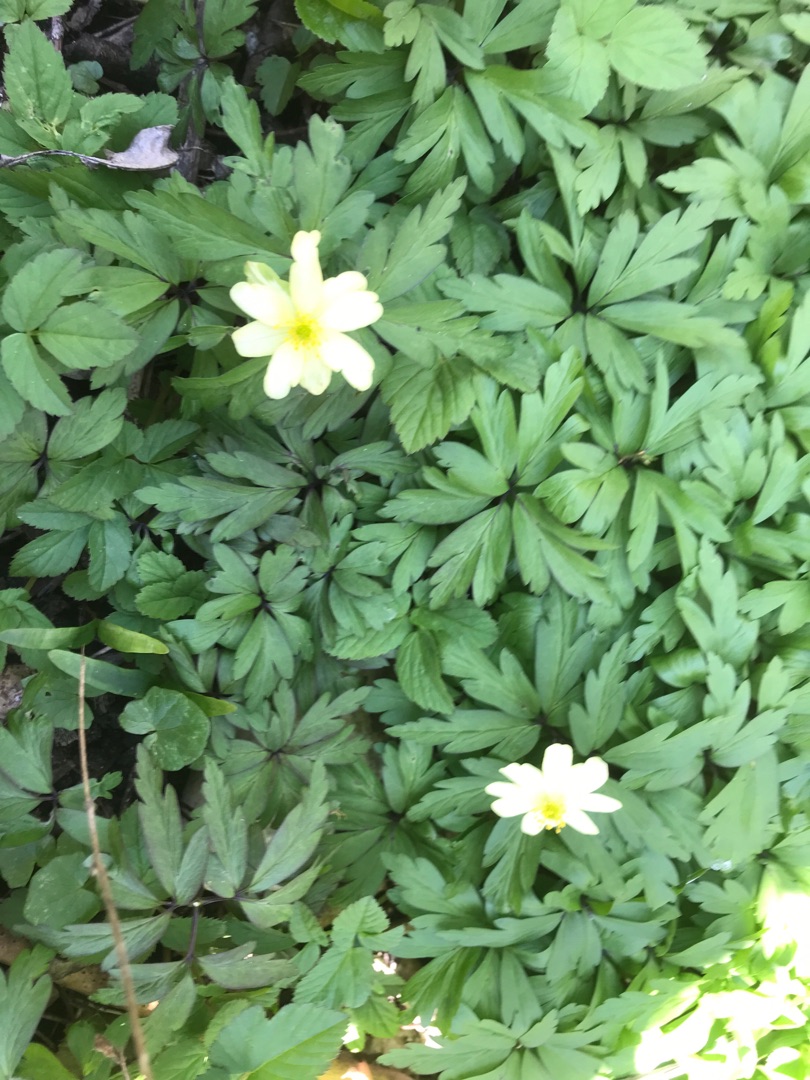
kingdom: Plantae
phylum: Tracheophyta
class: Magnoliopsida
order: Ranunculales
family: Ranunculaceae
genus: Anemone
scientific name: Anemone
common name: Svovlgul anemone
